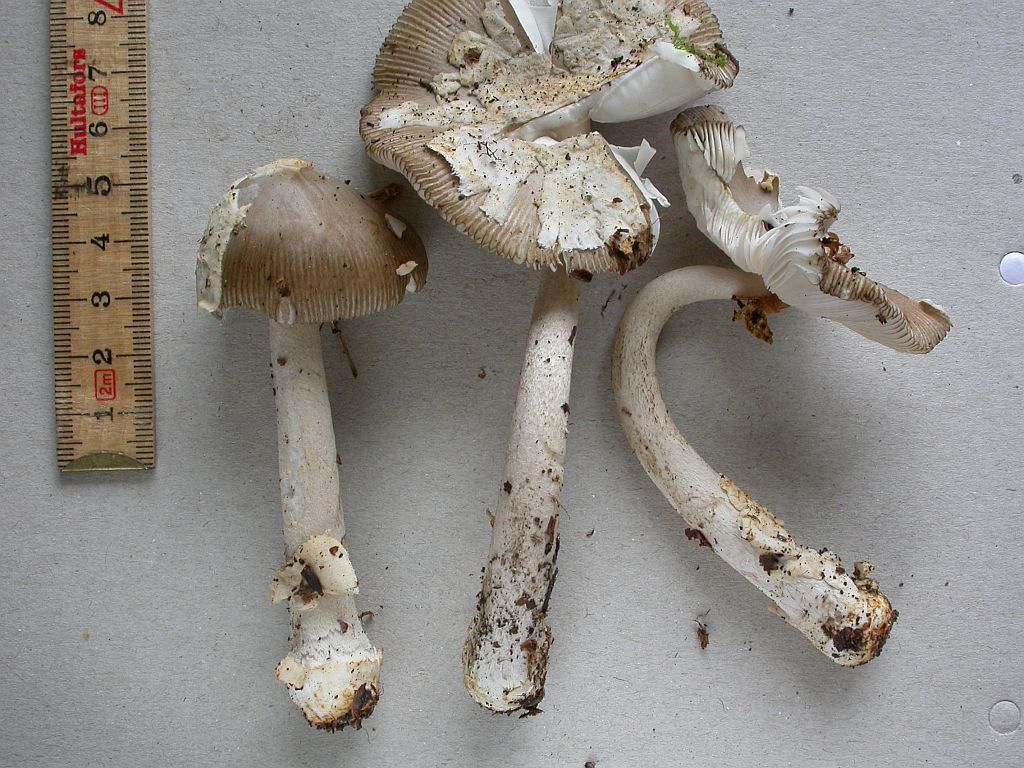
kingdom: Fungi
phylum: Basidiomycota
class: Agaricomycetes
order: Agaricales
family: Amanitaceae
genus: Amanita
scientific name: Amanita vaginata
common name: grå kam-fluesvamp
